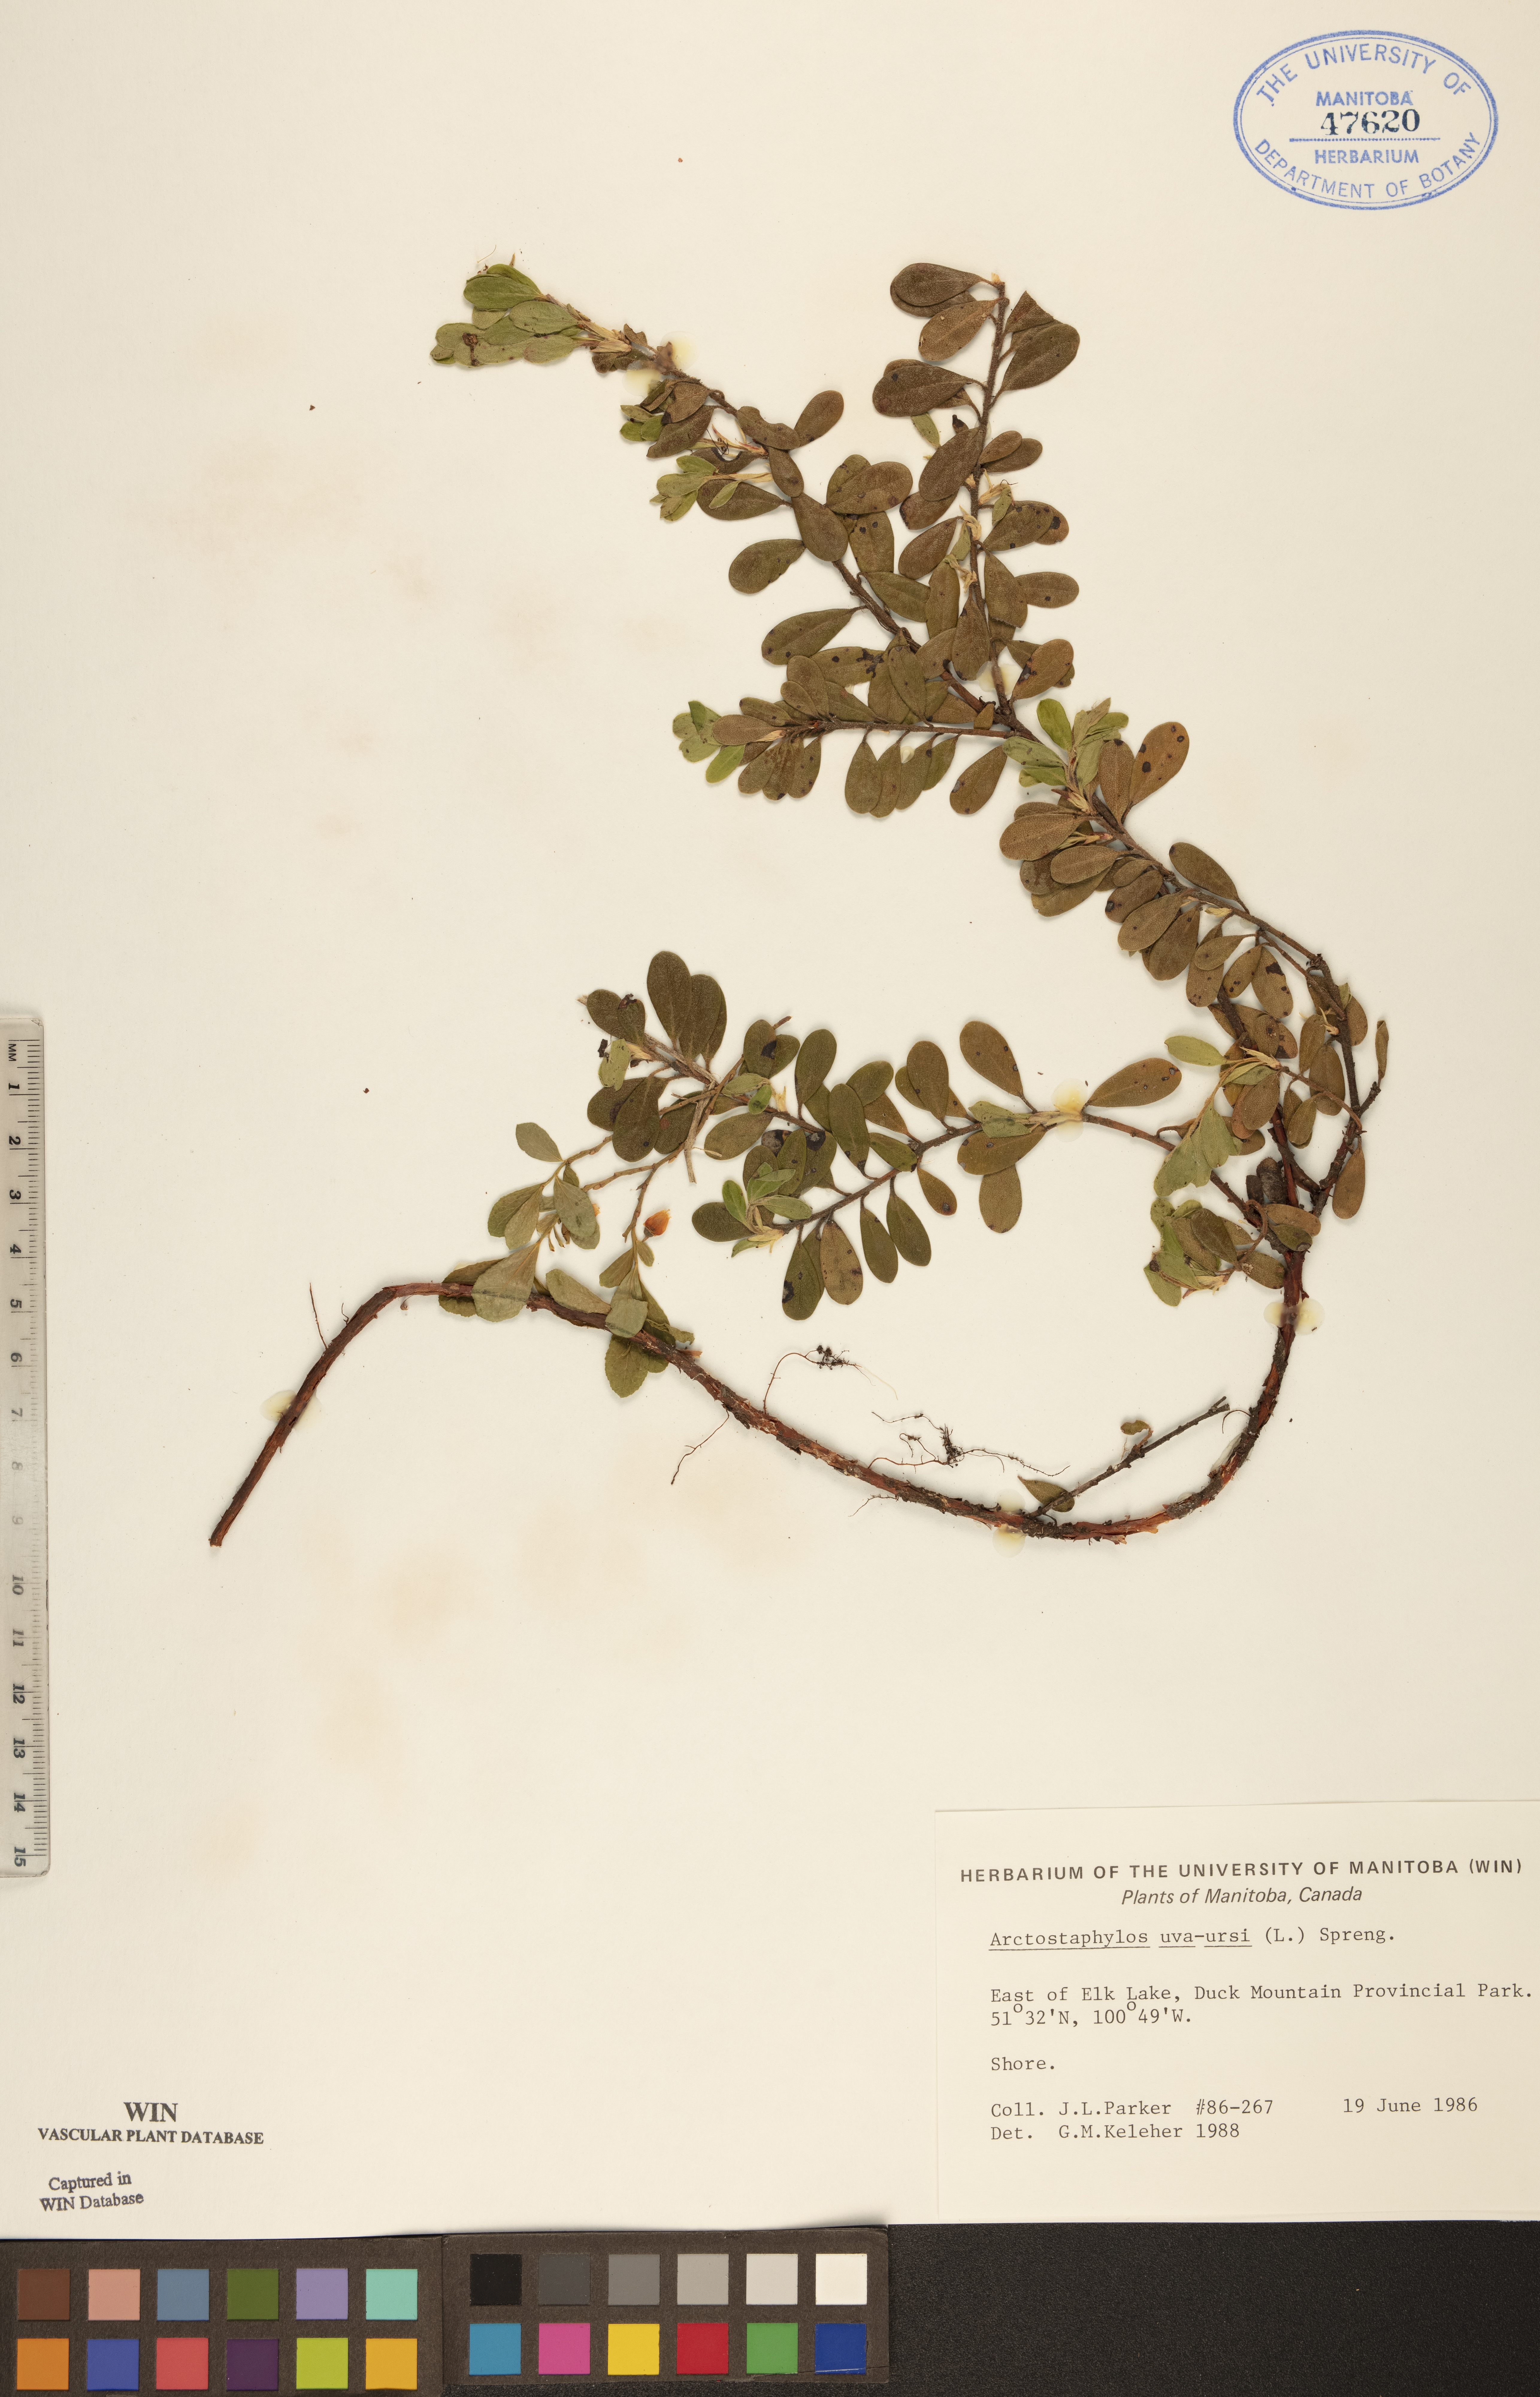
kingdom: Plantae
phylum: Tracheophyta
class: Magnoliopsida
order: Ericales
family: Ericaceae
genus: Arctostaphylos
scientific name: Arctostaphylos uva-ursi
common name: Bearberry
